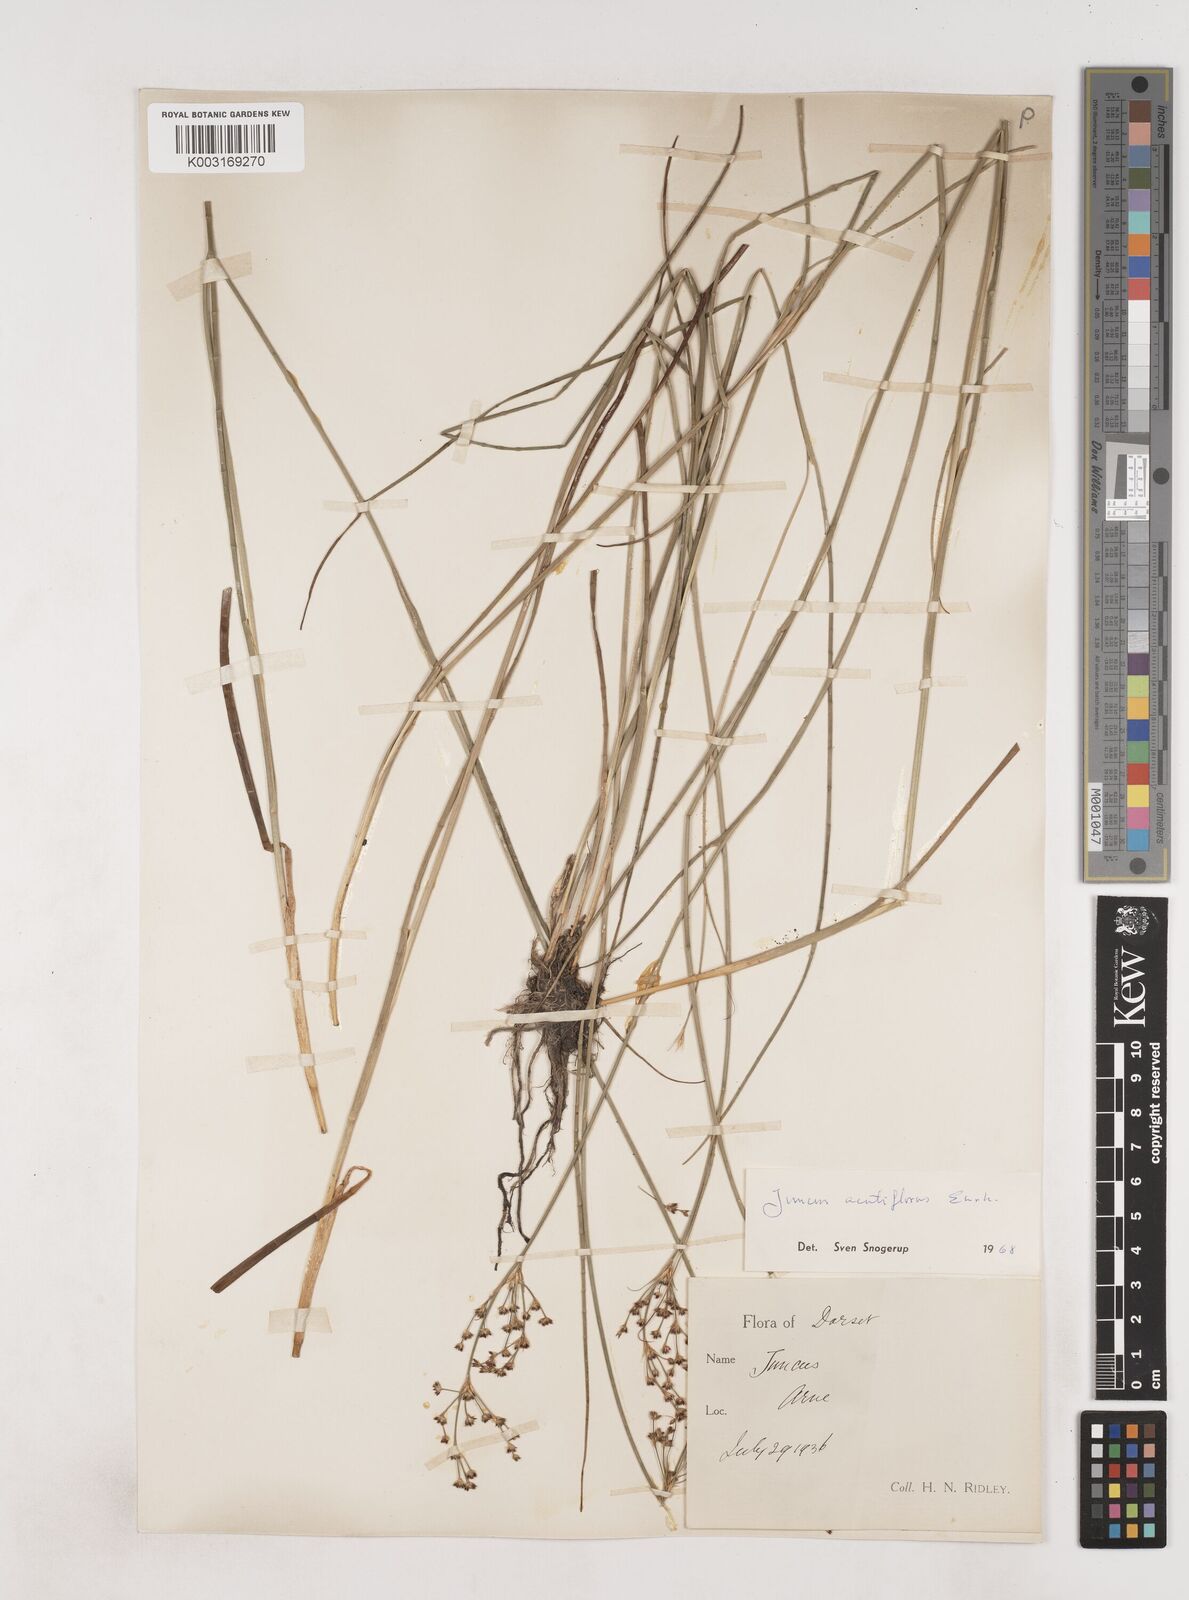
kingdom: Plantae
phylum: Tracheophyta
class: Liliopsida
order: Poales
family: Juncaceae
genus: Juncus
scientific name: Juncus acutiflorus
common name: Sharp-flowered rush
